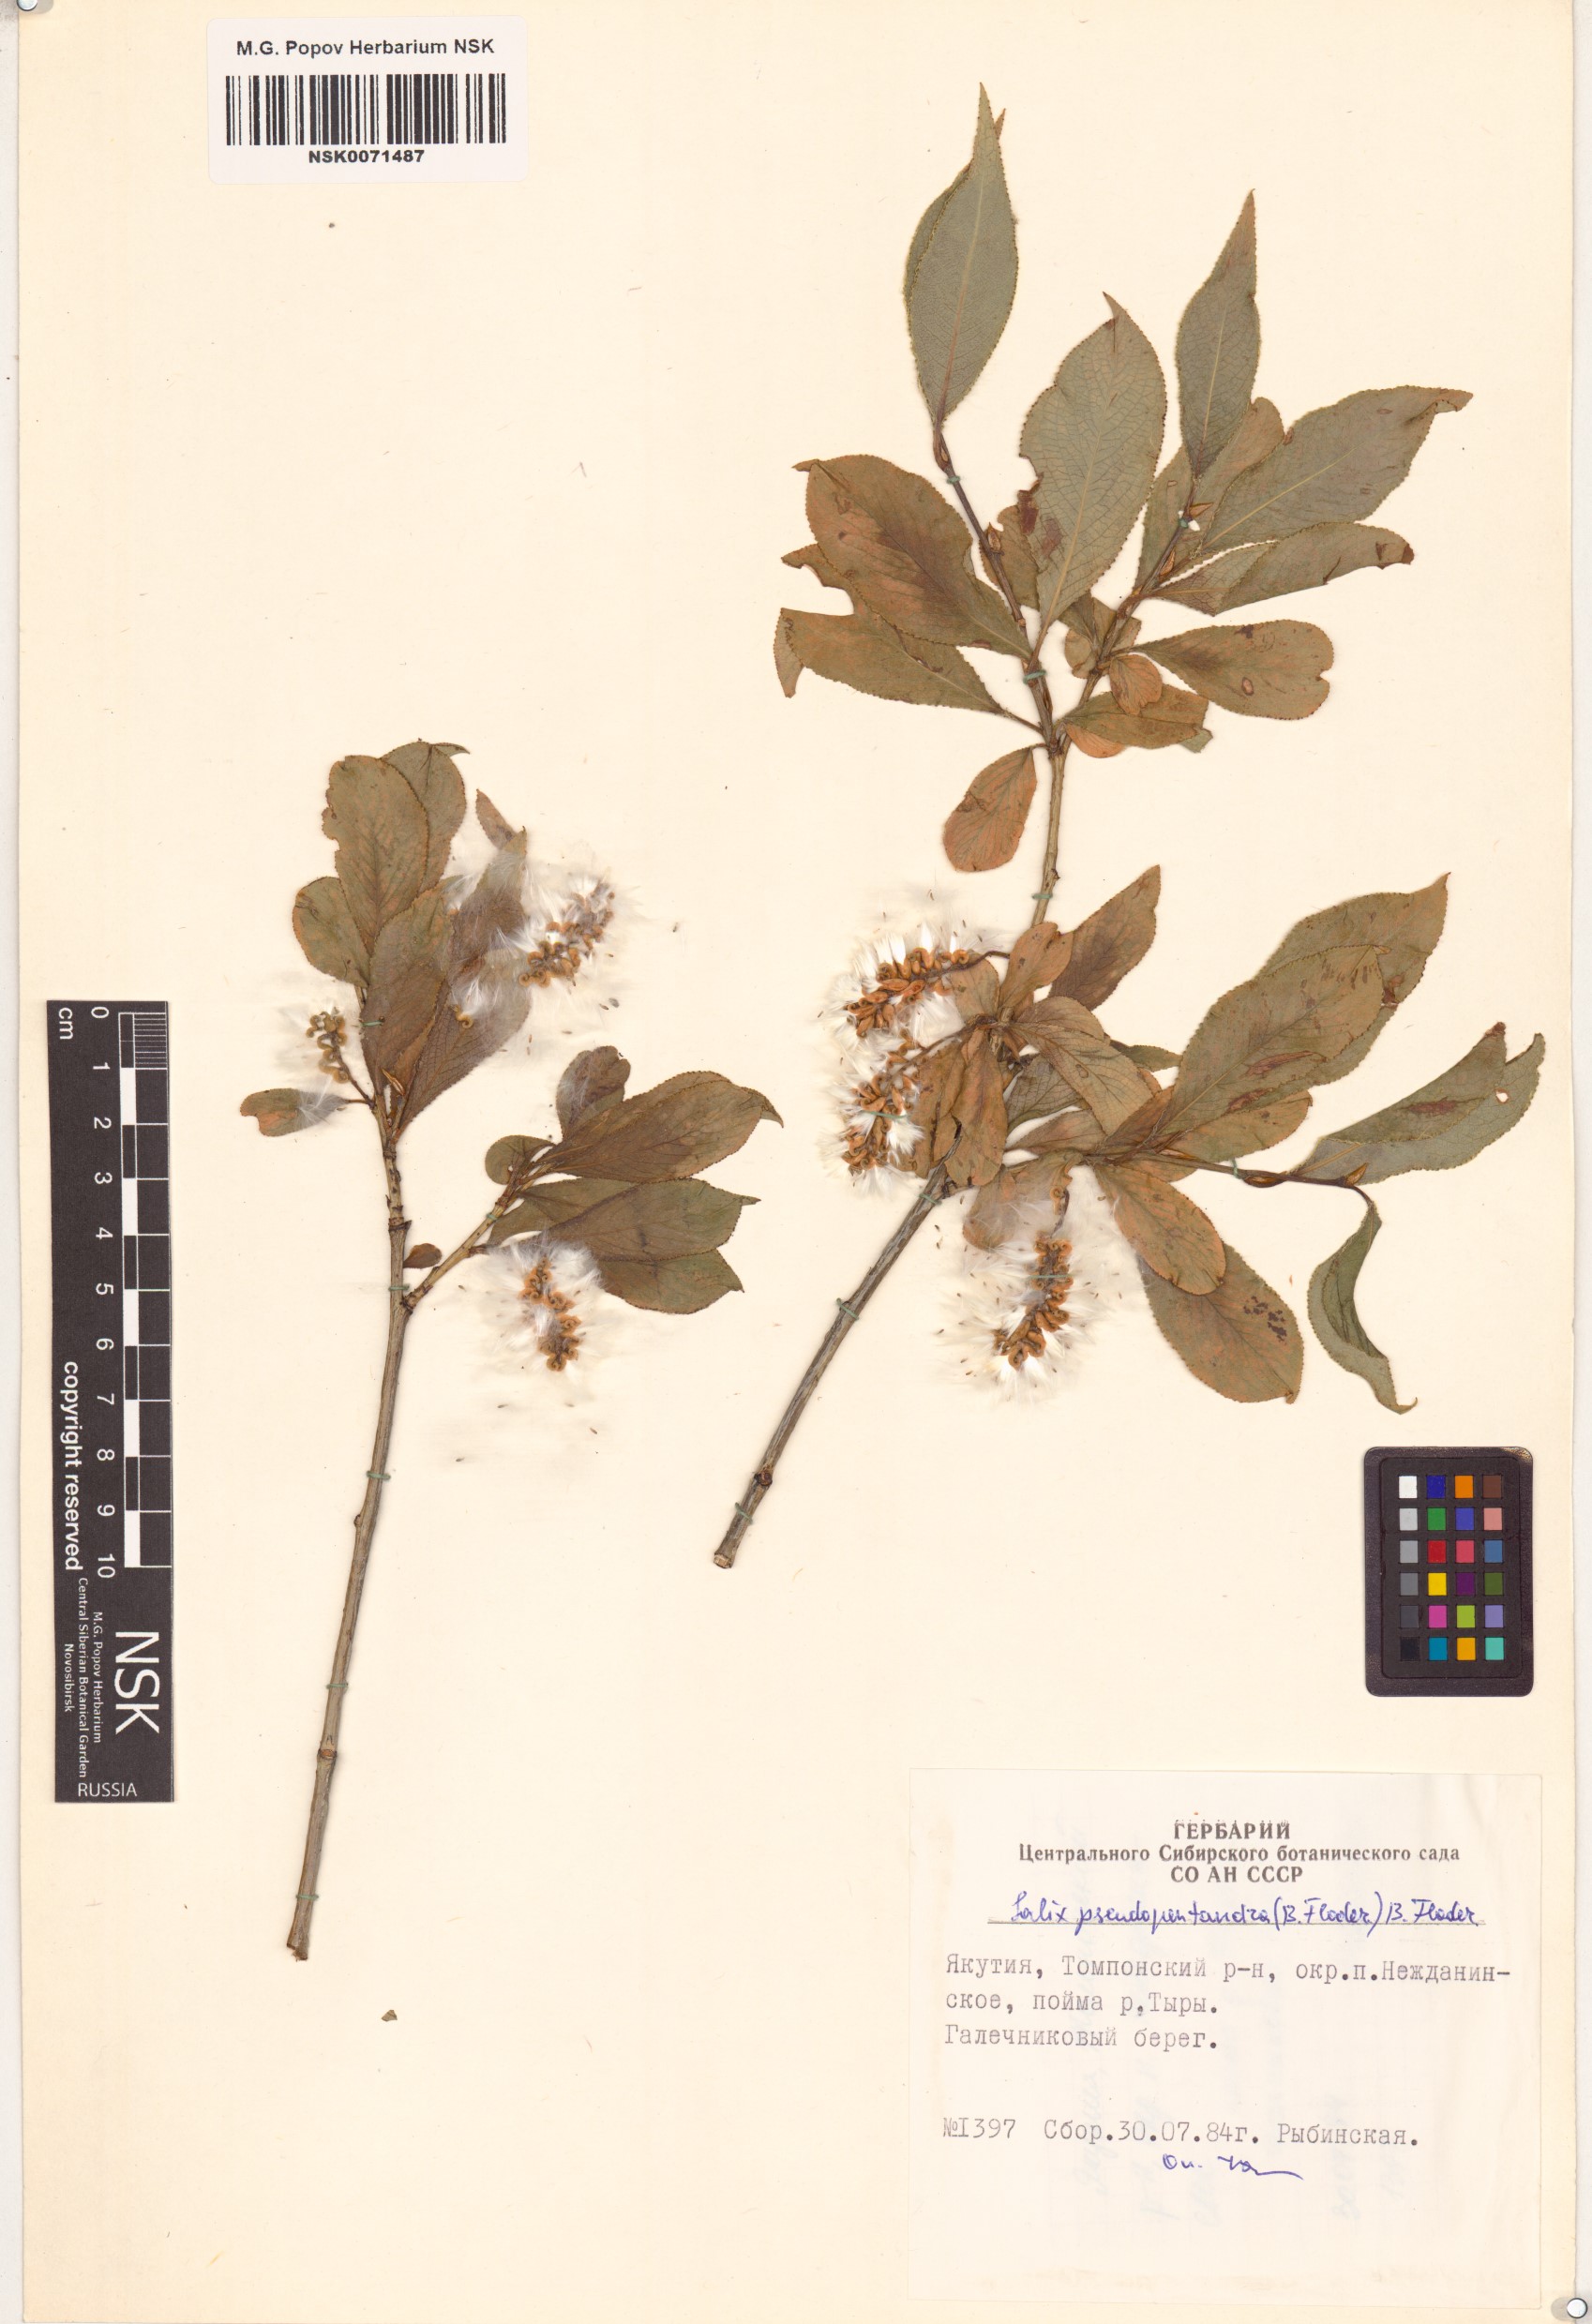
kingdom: Plantae
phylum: Tracheophyta
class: Magnoliopsida
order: Malpighiales
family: Salicaceae
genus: Salix
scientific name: Salix pseudopentandra
